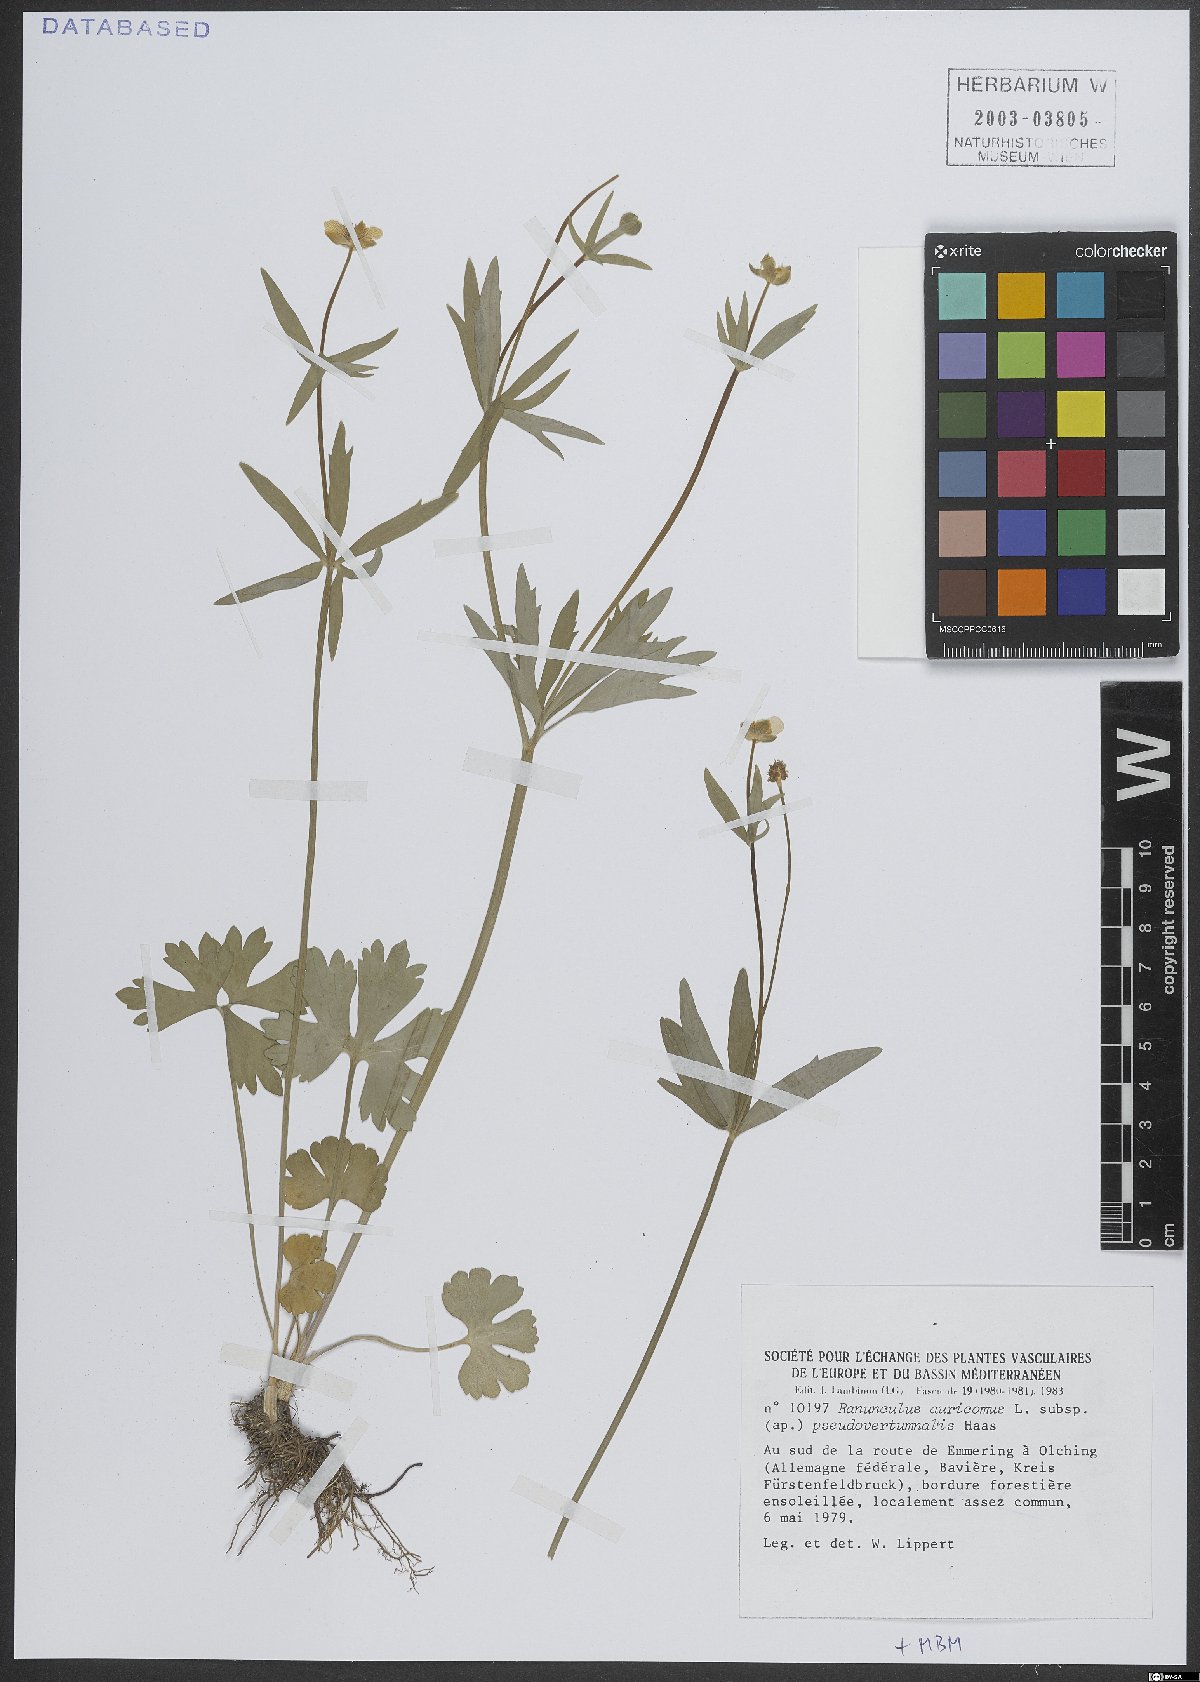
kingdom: Plantae
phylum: Tracheophyta
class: Magnoliopsida
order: Ranunculales
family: Ranunculaceae
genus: Ranunculus
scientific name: Ranunculus auricomus
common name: Goldilocks buttercup
